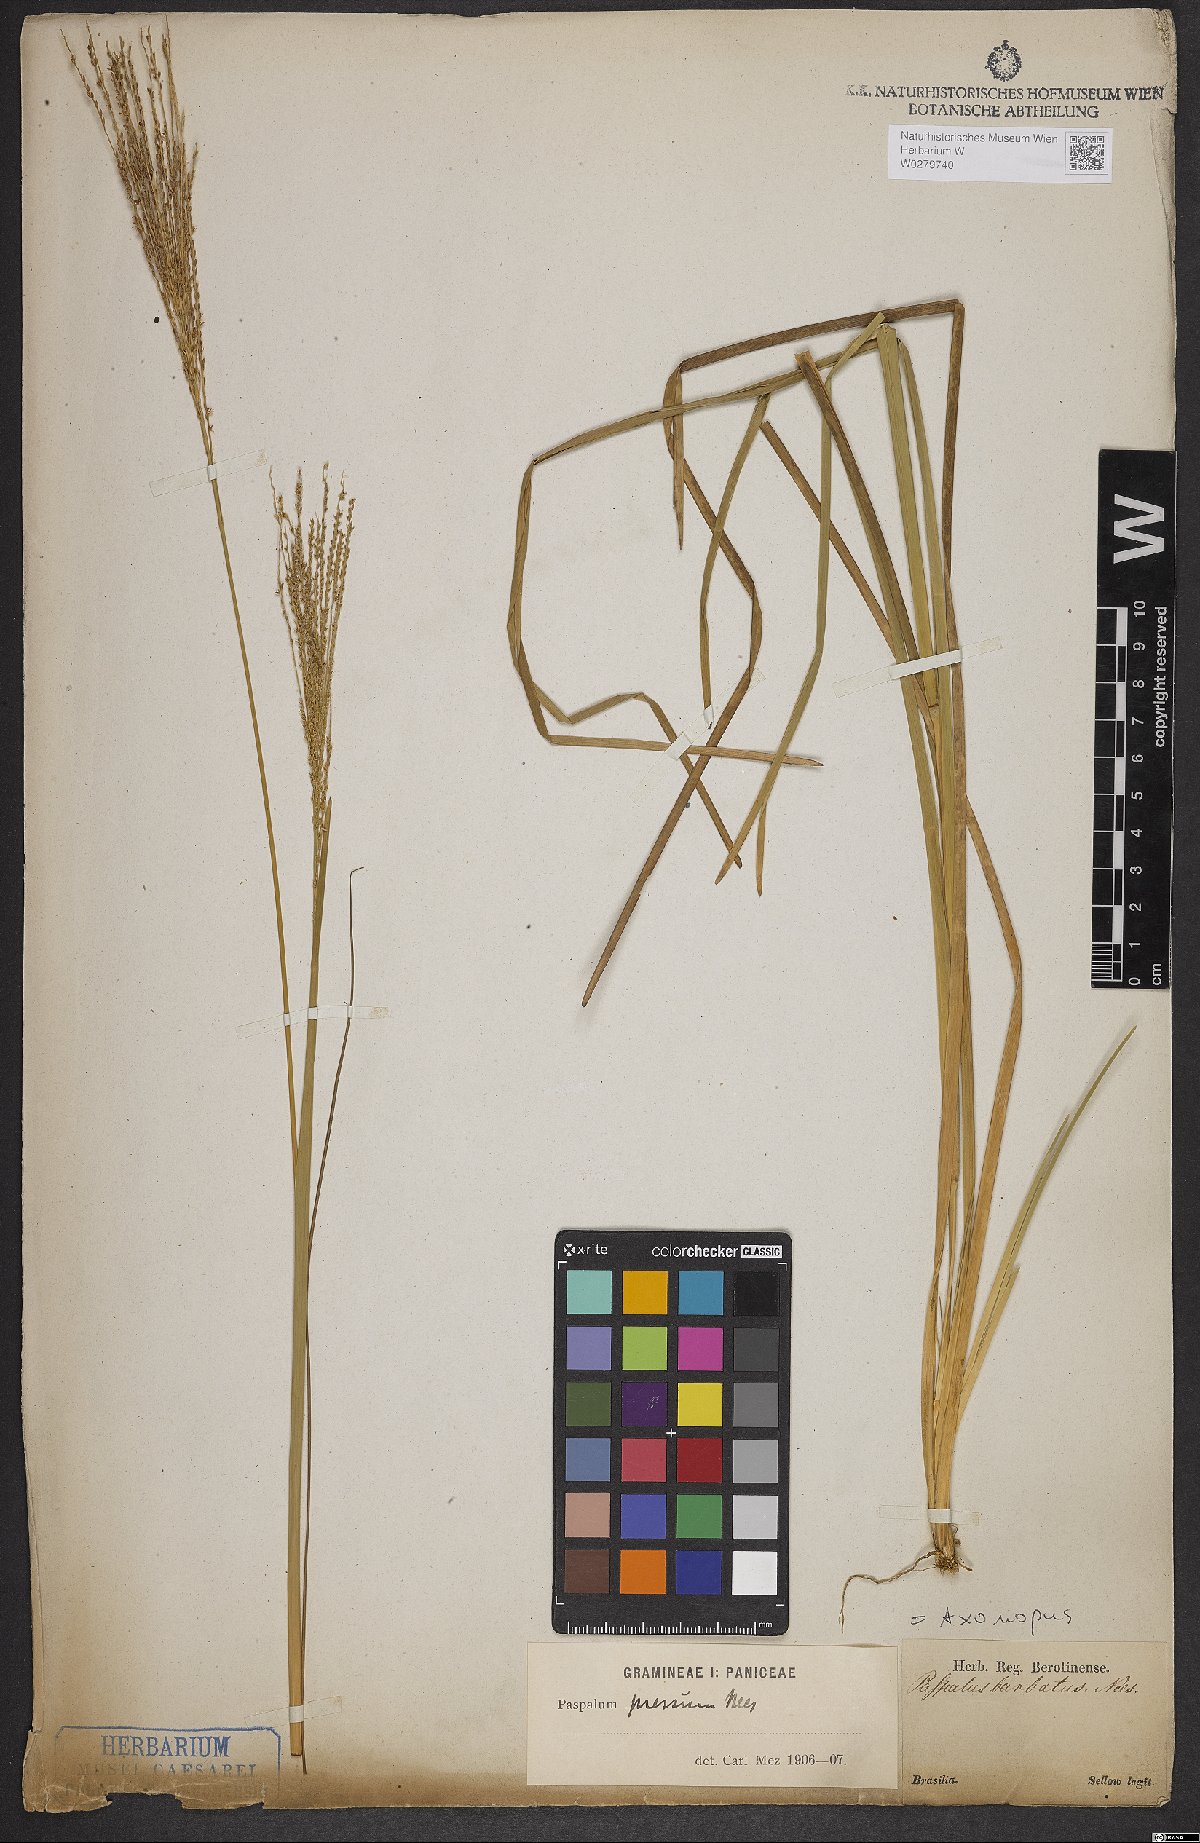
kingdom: Plantae
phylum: Tracheophyta
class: Liliopsida
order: Poales
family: Poaceae
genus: Axonopus
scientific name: Axonopus pressus
